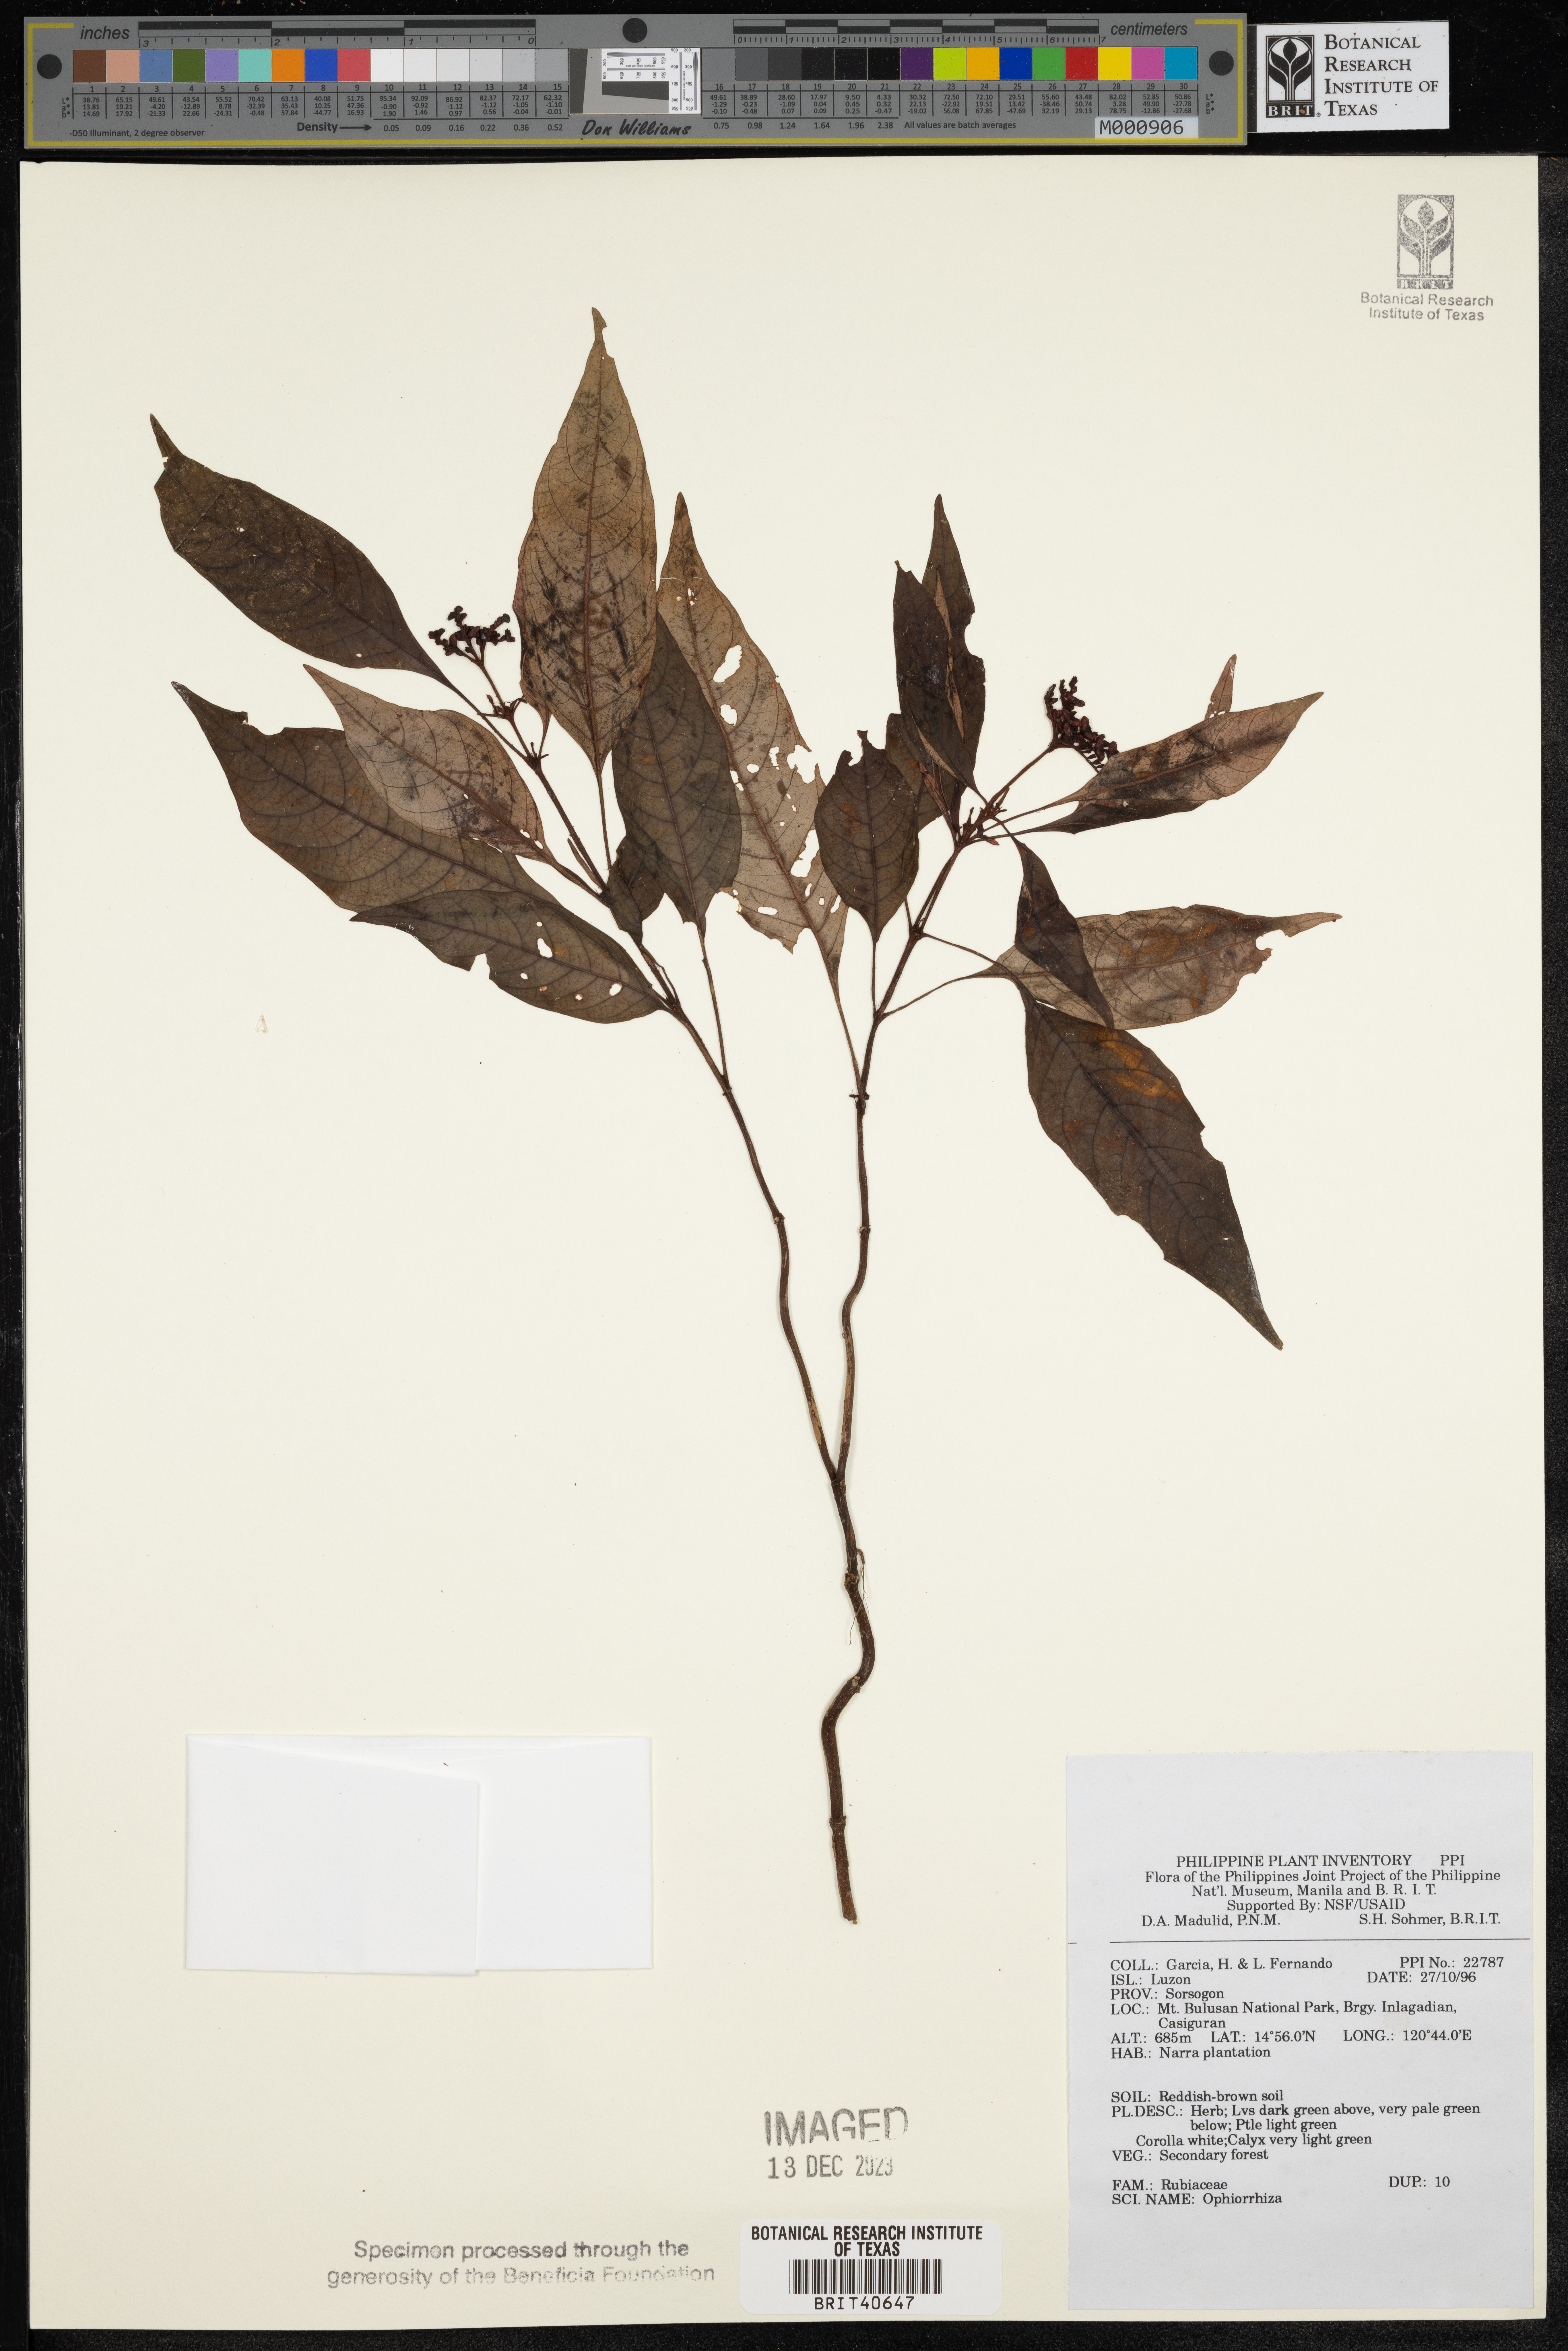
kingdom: Plantae
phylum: Tracheophyta
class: Magnoliopsida
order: Gentianales
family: Rubiaceae
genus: Ophiorrhiza
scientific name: Ophiorrhiza
